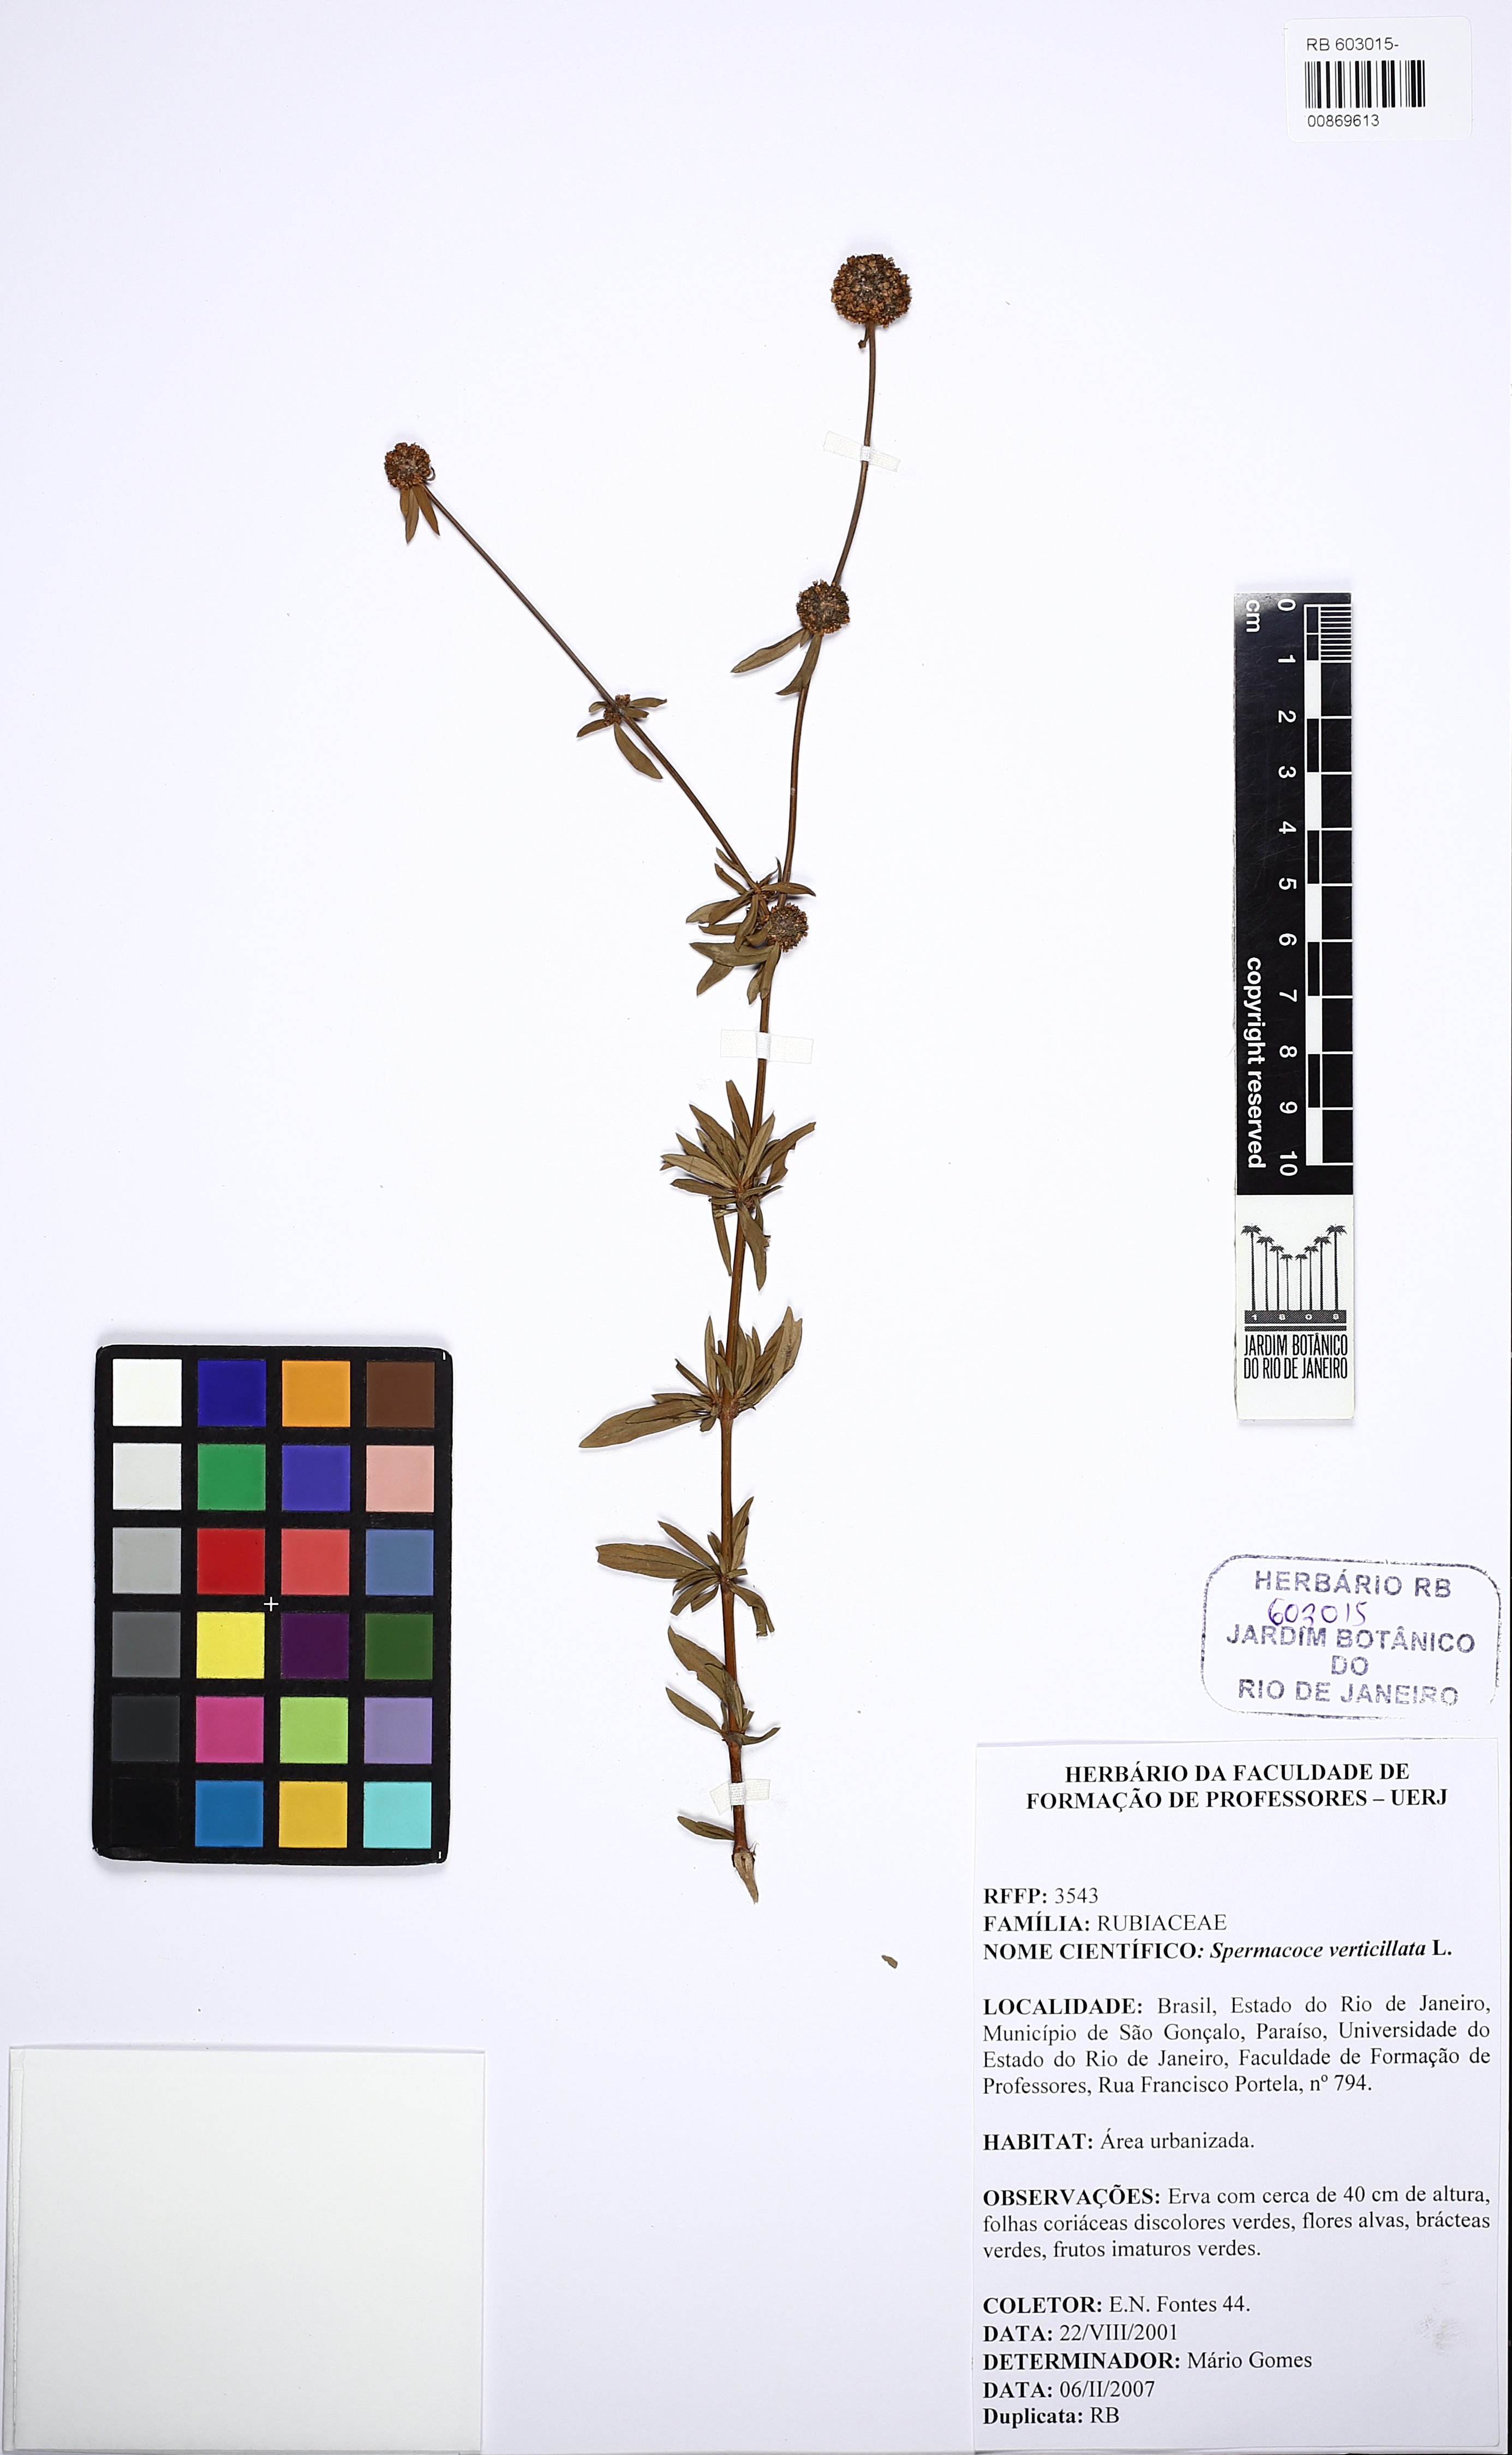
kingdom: Plantae
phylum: Tracheophyta
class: Magnoliopsida
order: Gentianales
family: Rubiaceae
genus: Spermacoce
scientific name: Spermacoce verticillata
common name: Shrubby false buttonweed
